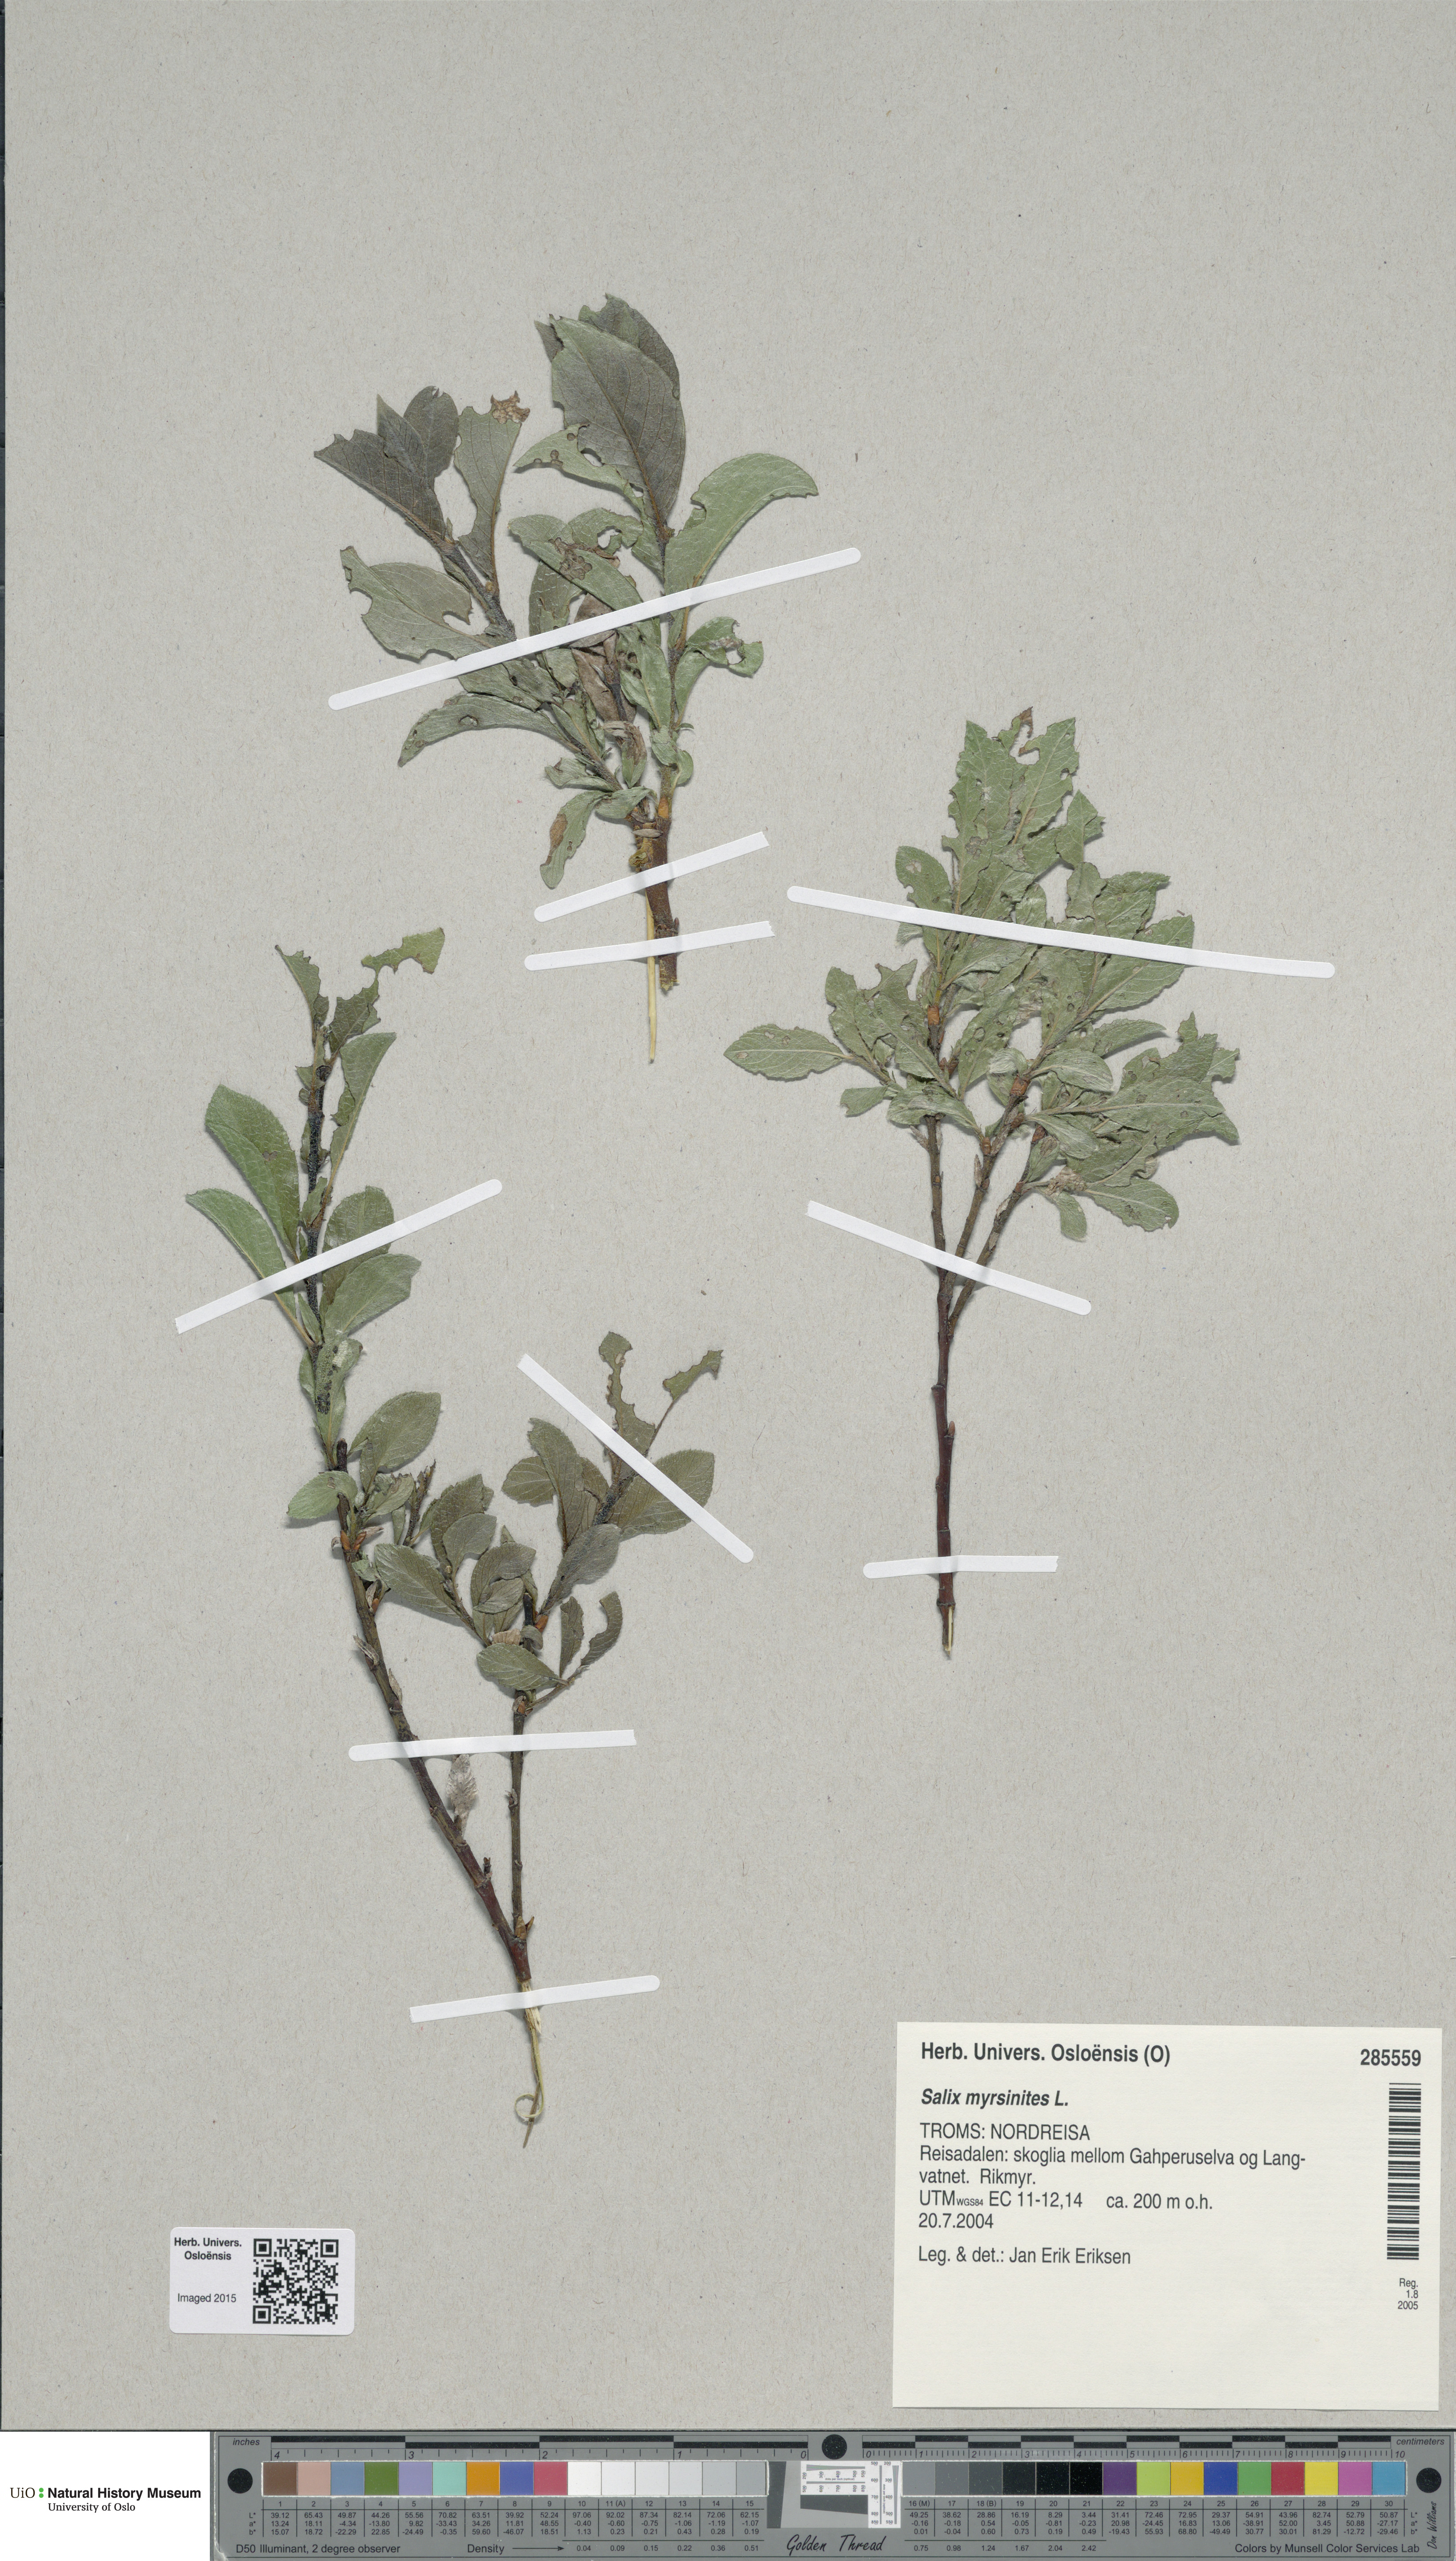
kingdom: Plantae
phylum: Tracheophyta
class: Magnoliopsida
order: Malpighiales
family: Salicaceae
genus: Salix
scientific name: Salix myrsinites
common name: Myrtle willow
